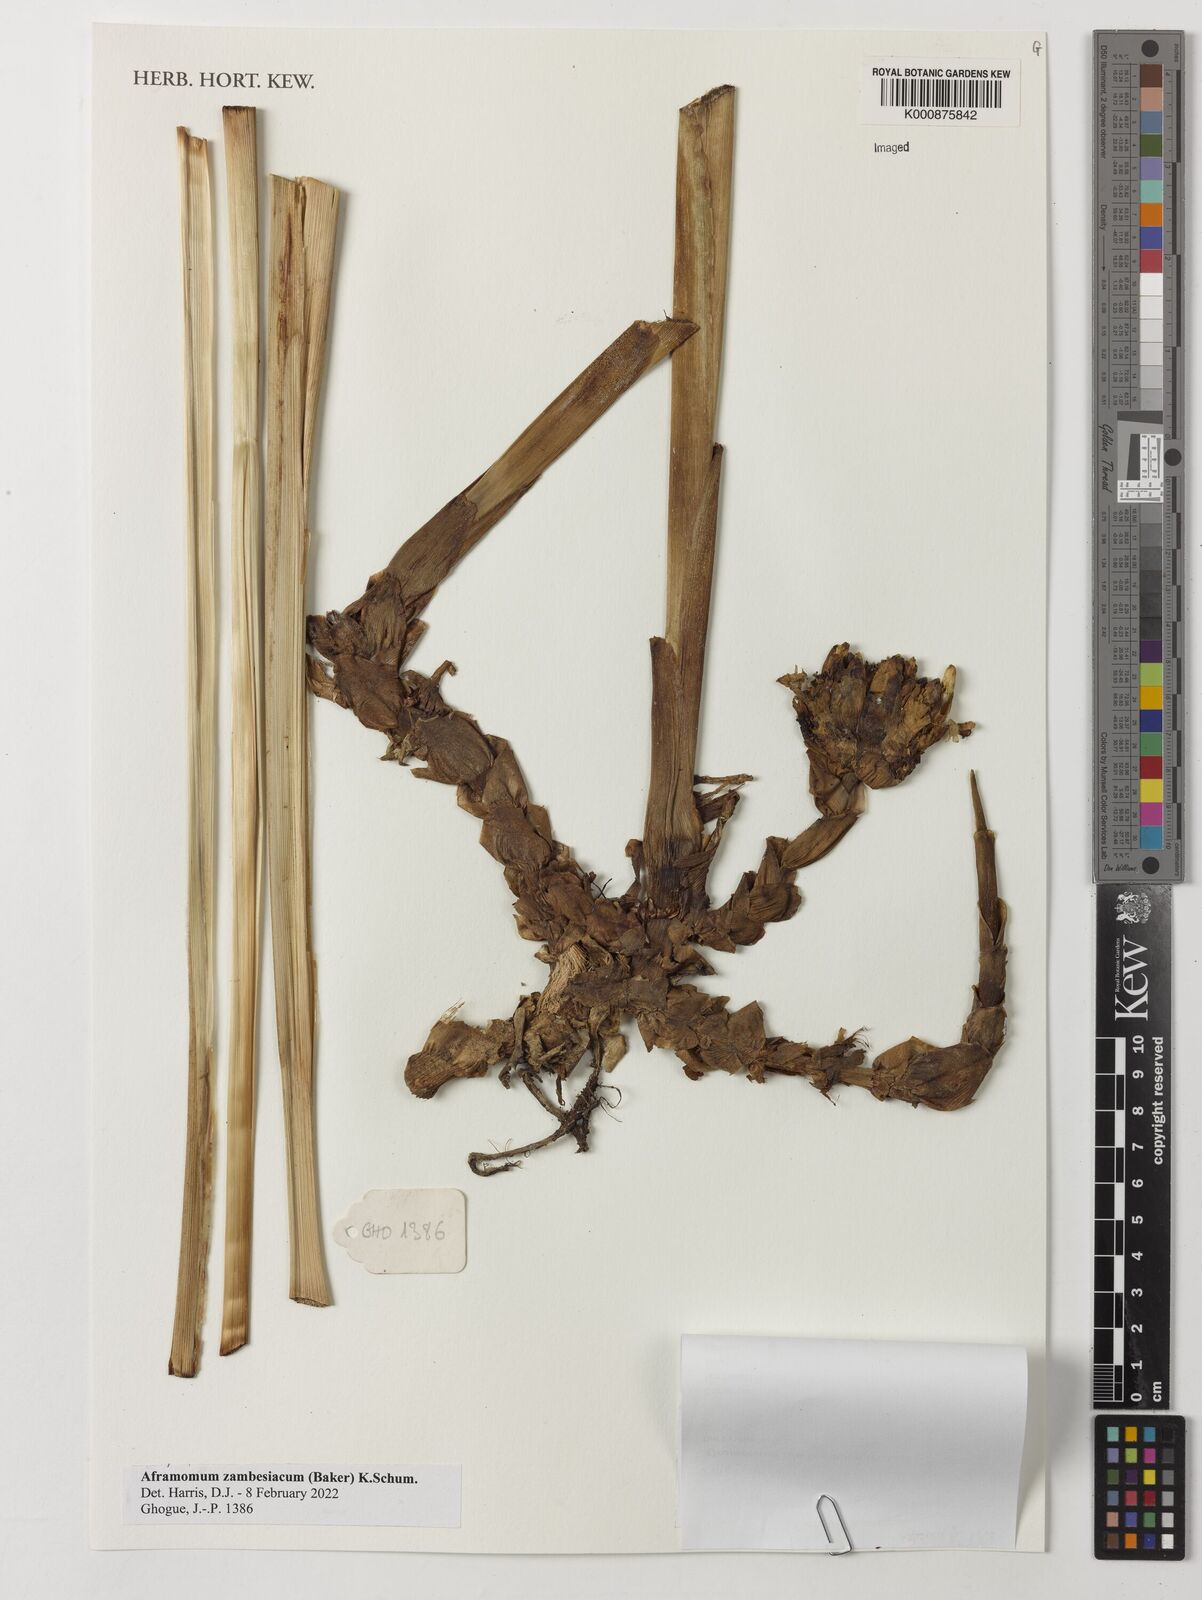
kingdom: Plantae
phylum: Tracheophyta
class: Liliopsida
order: Zingiberales
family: Zingiberaceae
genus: Aframomum
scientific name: Aframomum zambesiacum
